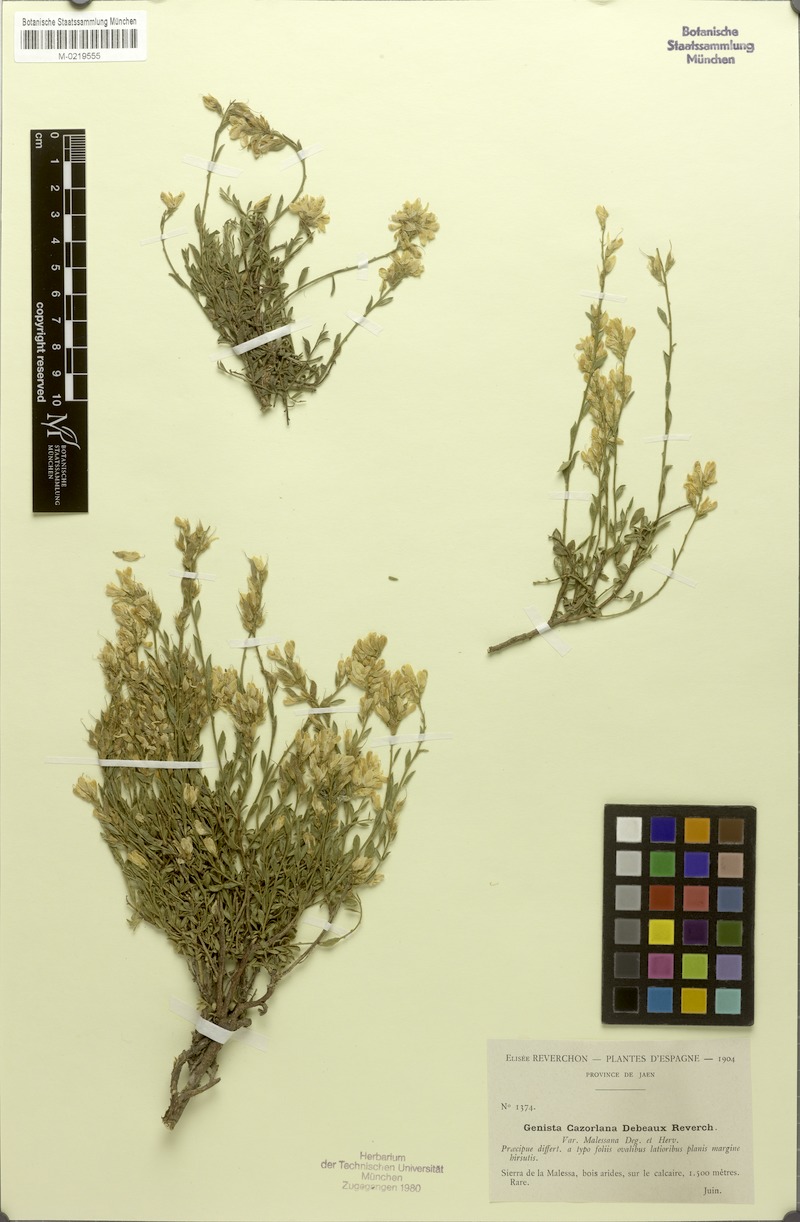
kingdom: Plantae
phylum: Tracheophyta
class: Magnoliopsida
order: Fabales
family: Fabaceae
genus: Genista
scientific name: Genista pseudopilosa
